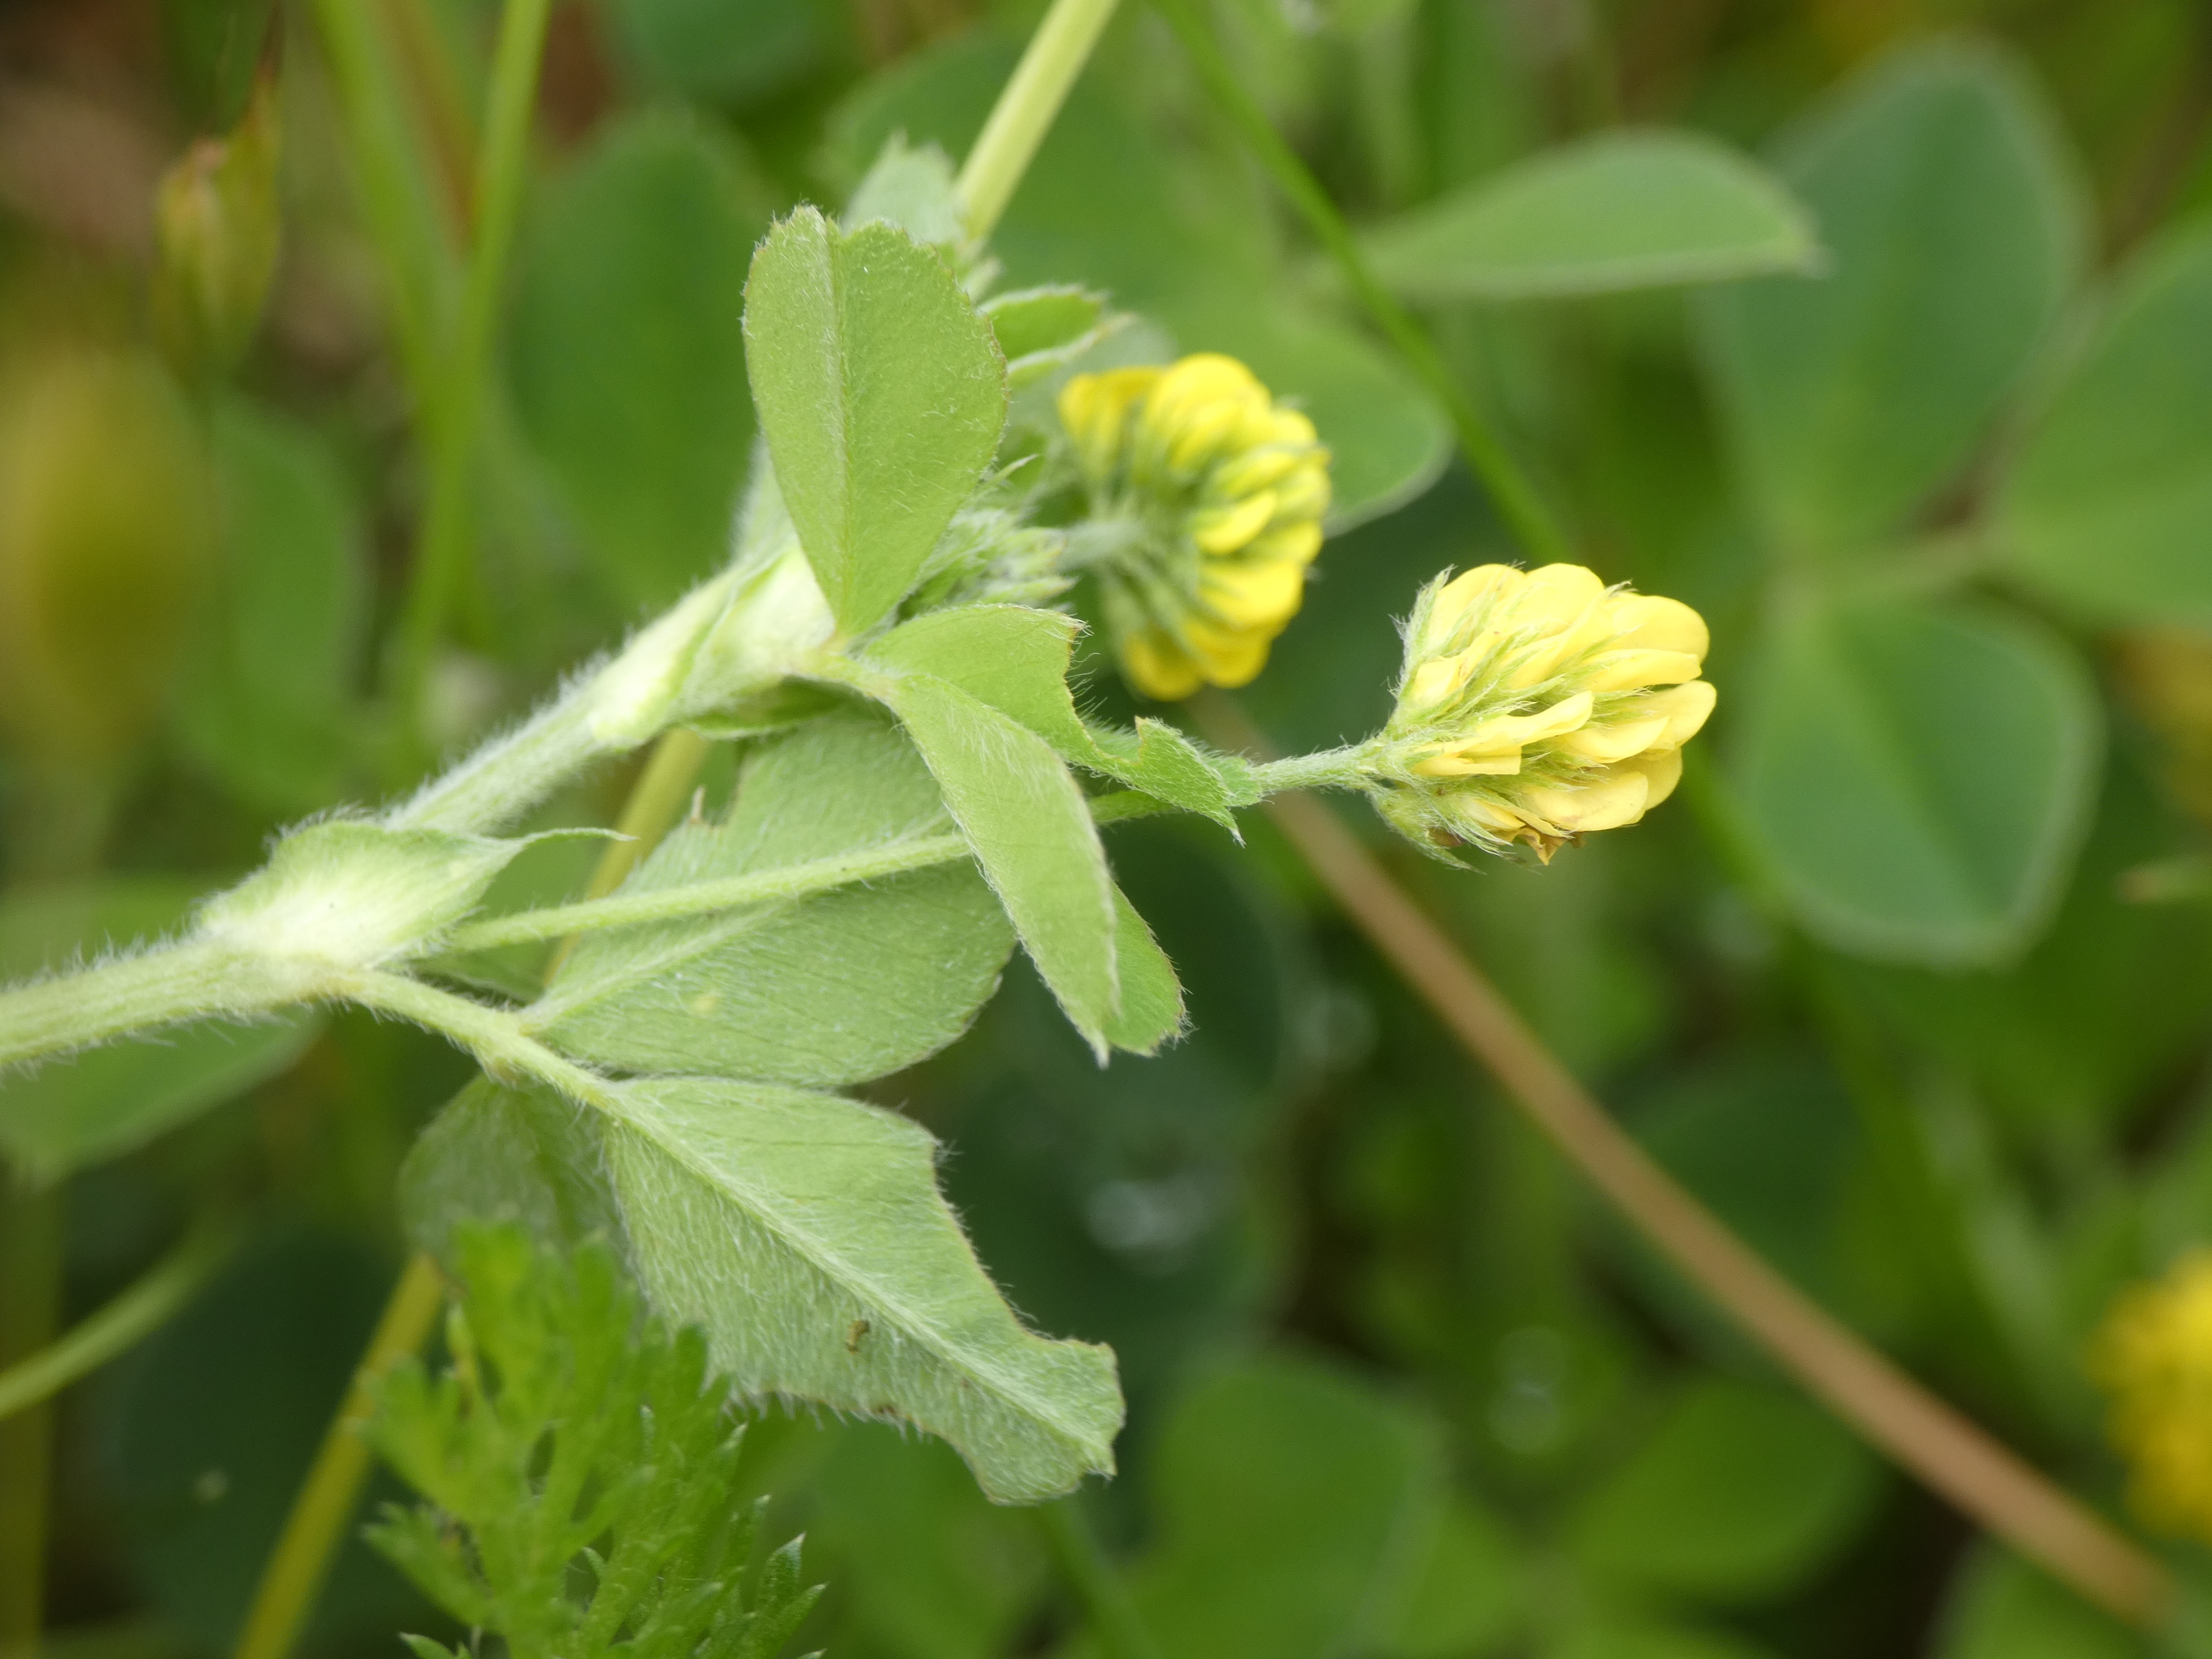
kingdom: Plantae
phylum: Tracheophyta
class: Magnoliopsida
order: Fabales
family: Fabaceae
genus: Medicago
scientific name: Medicago lupulina
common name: Humle-sneglebælg
